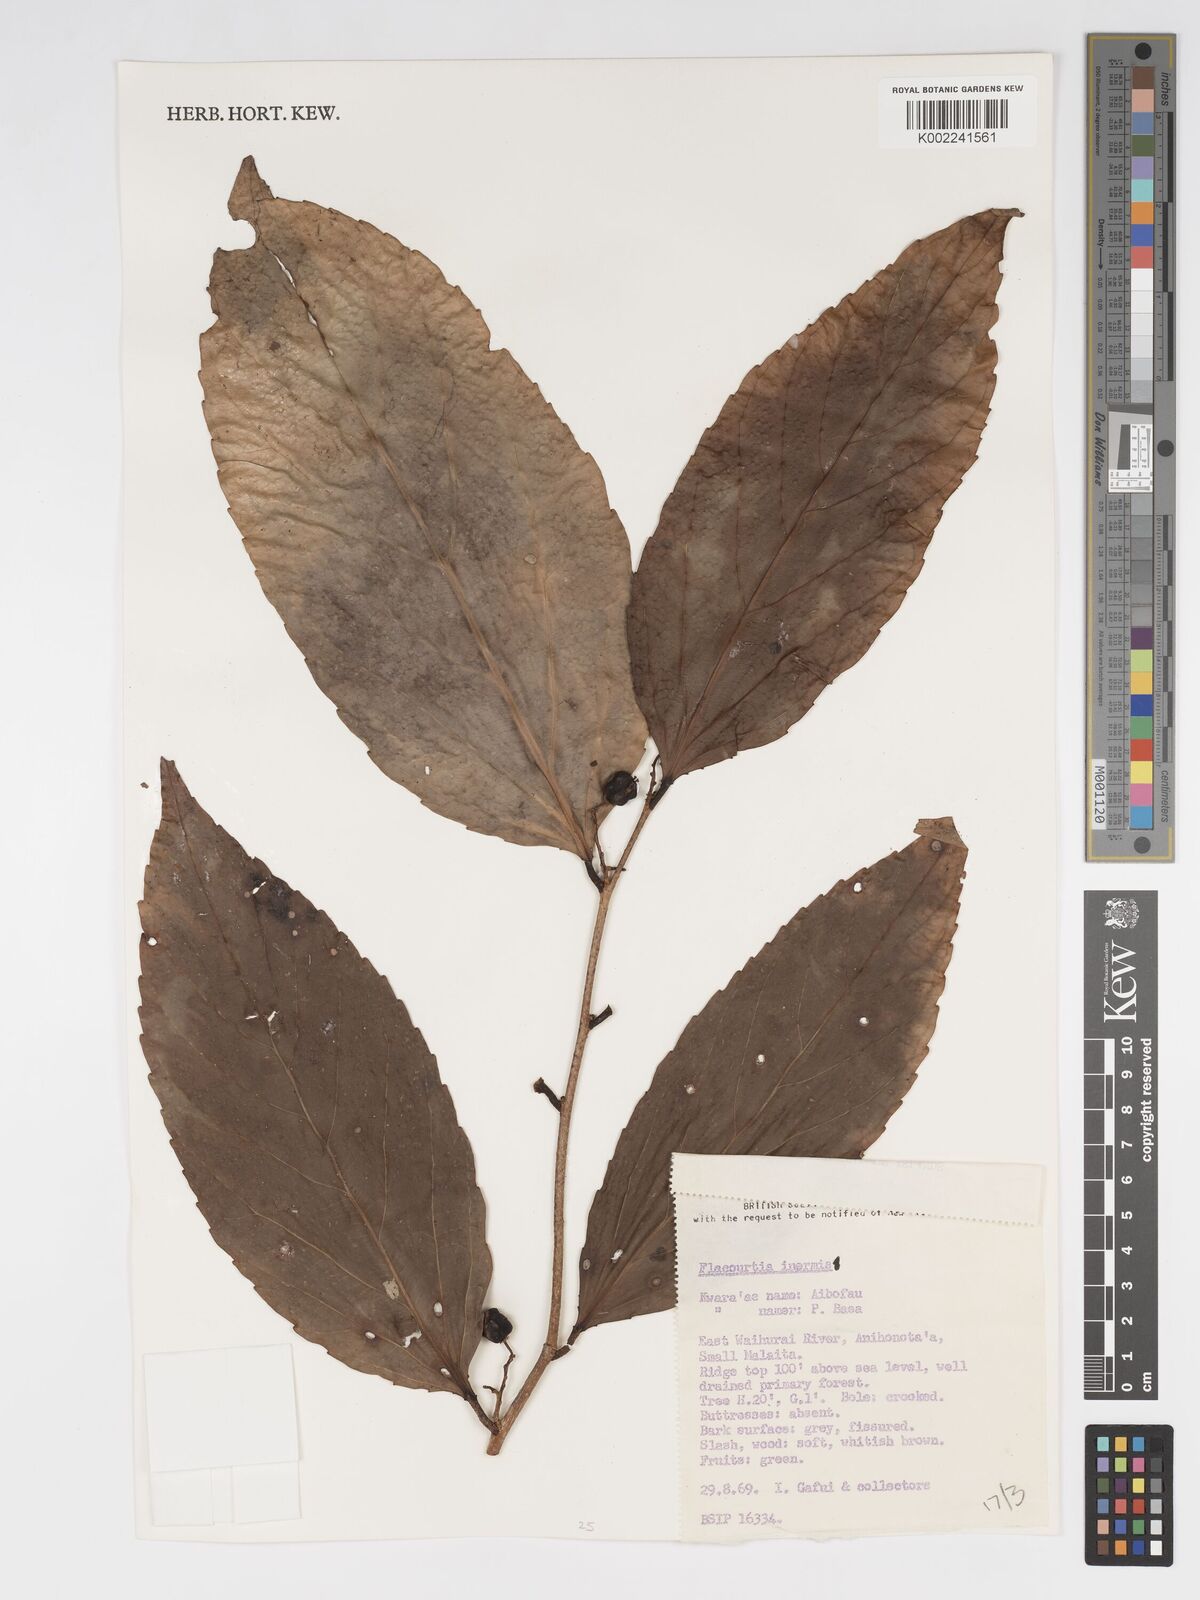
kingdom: Plantae
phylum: Tracheophyta
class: Magnoliopsida
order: Malpighiales
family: Salicaceae
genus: Flacourtia
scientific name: Flacourtia inermis
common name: Plum-of-martinique
